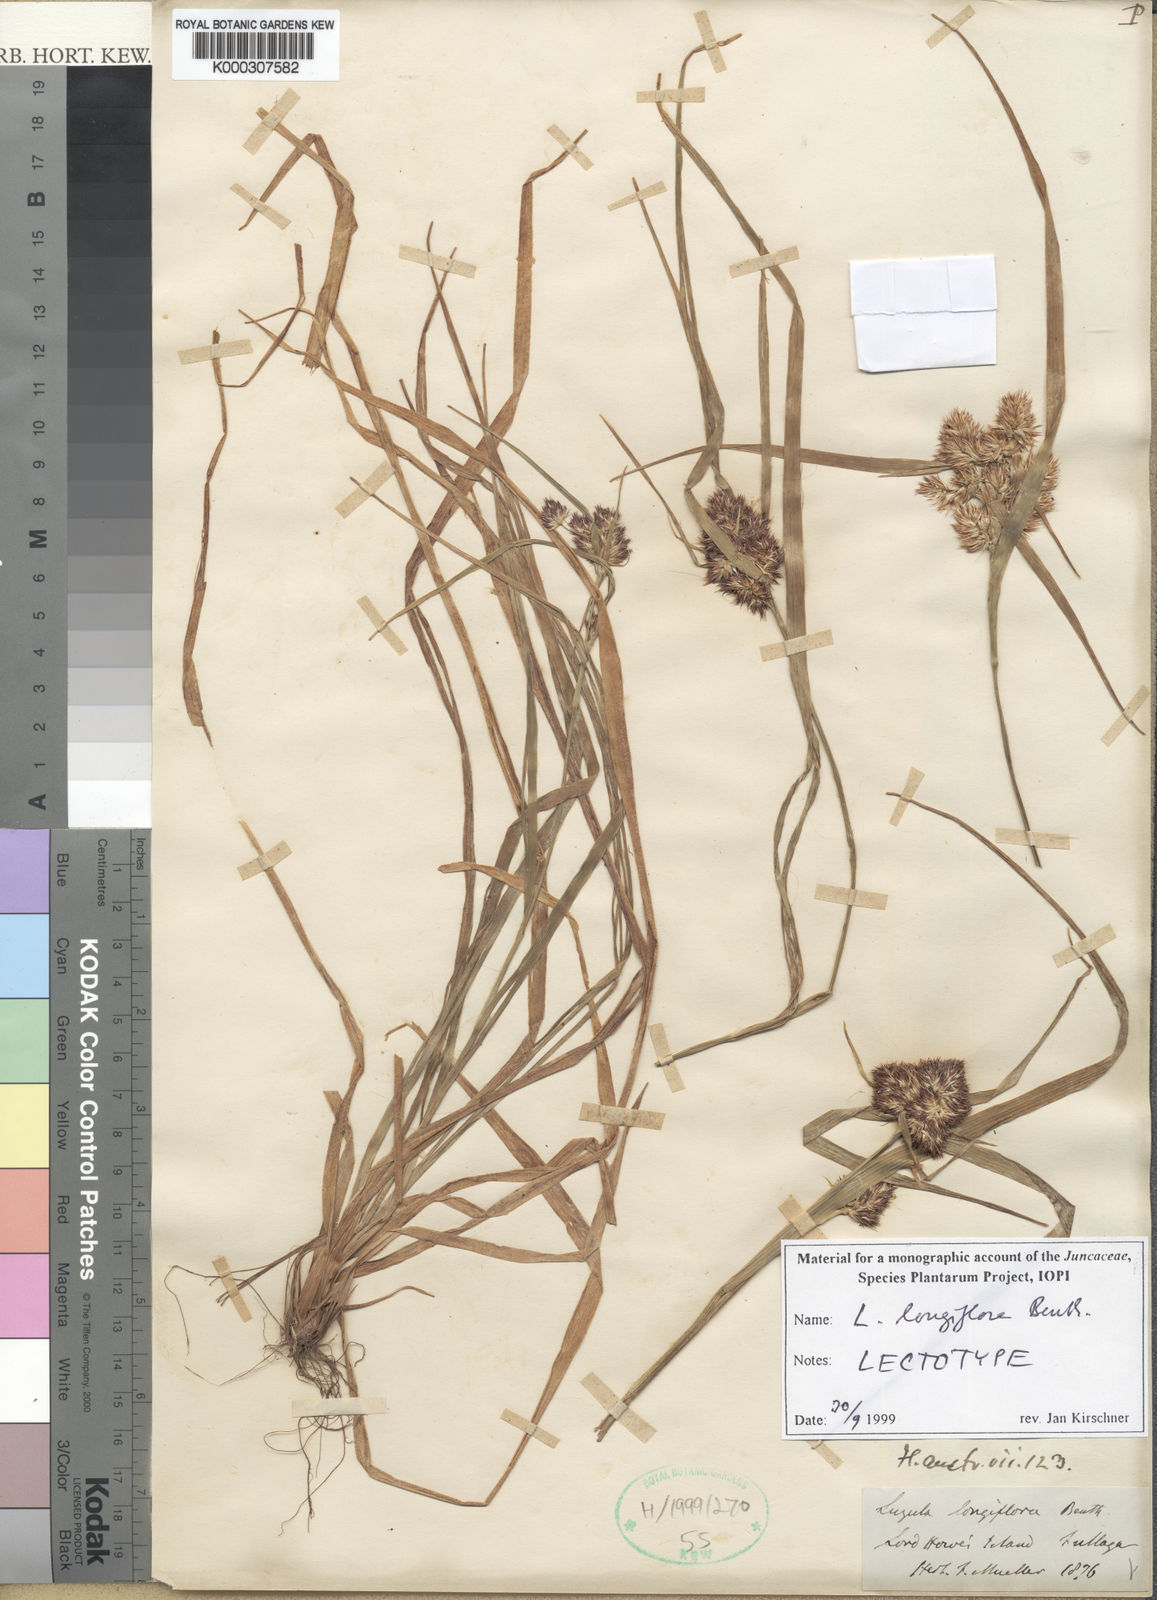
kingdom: Plantae
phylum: Tracheophyta
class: Liliopsida
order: Poales
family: Juncaceae
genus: Luzula
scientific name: Luzula longiflora
